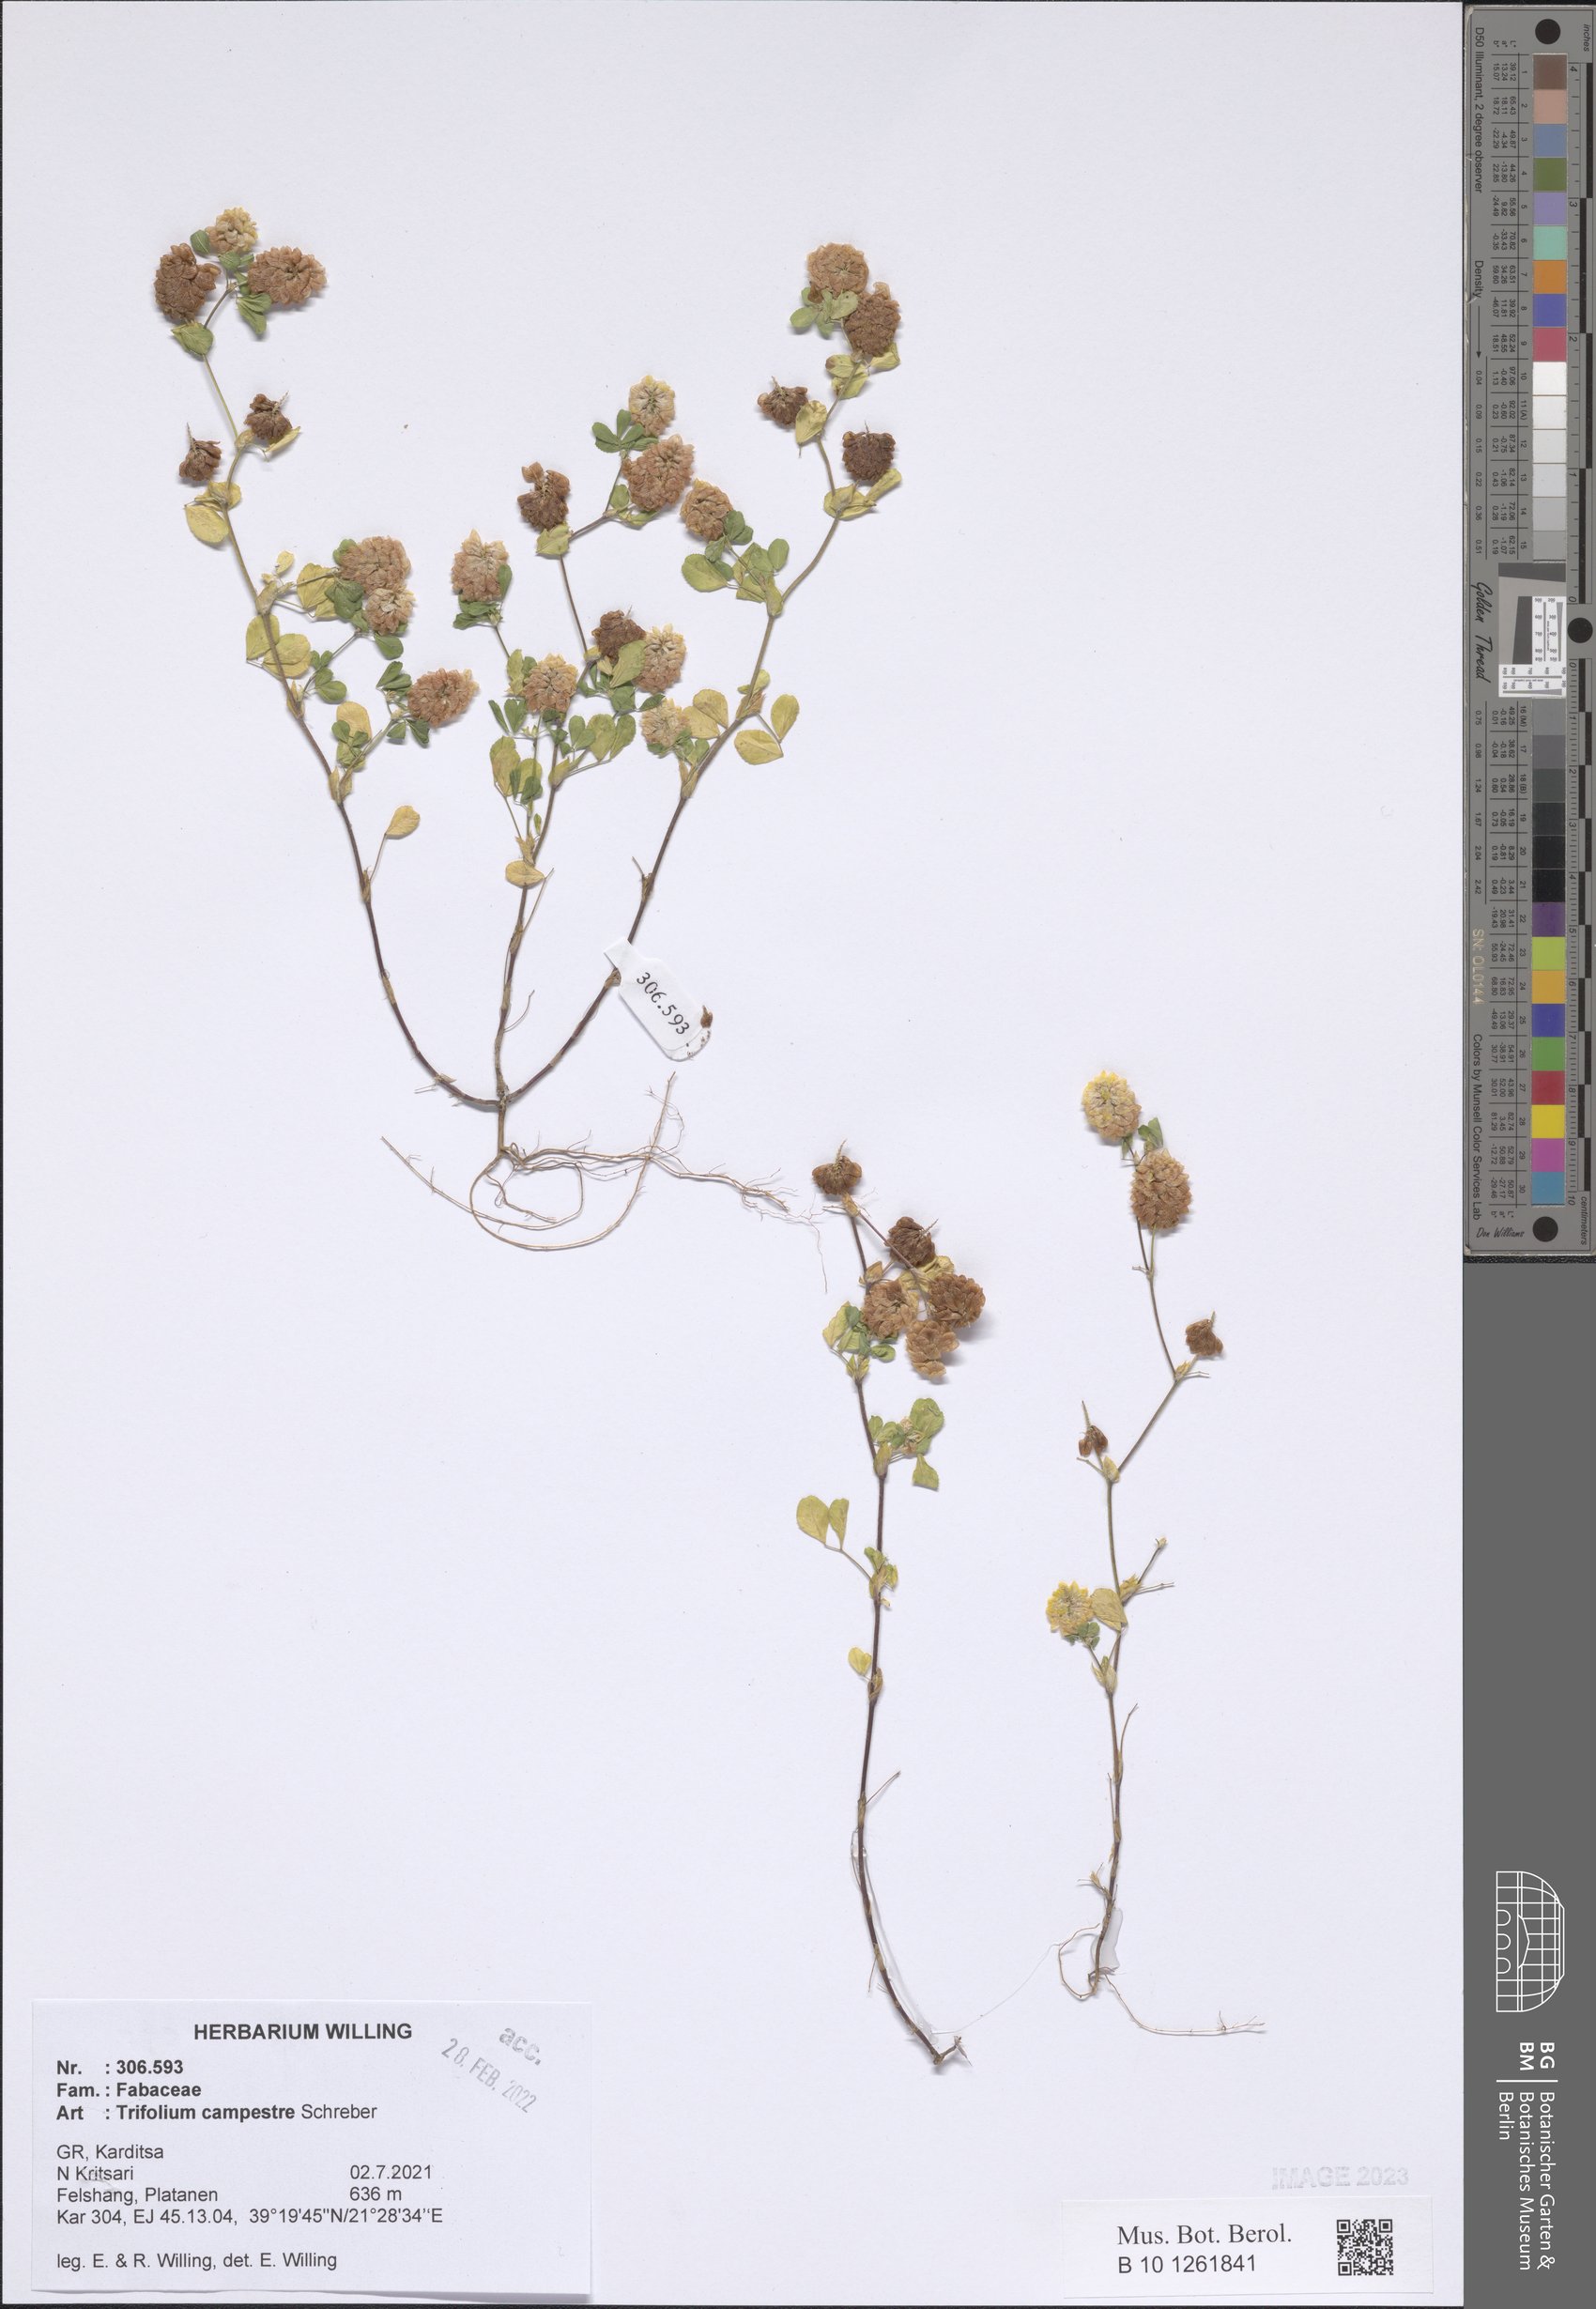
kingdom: Plantae
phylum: Tracheophyta
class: Magnoliopsida
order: Fabales
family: Fabaceae
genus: Trifolium
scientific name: Trifolium campestre
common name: Field clover
